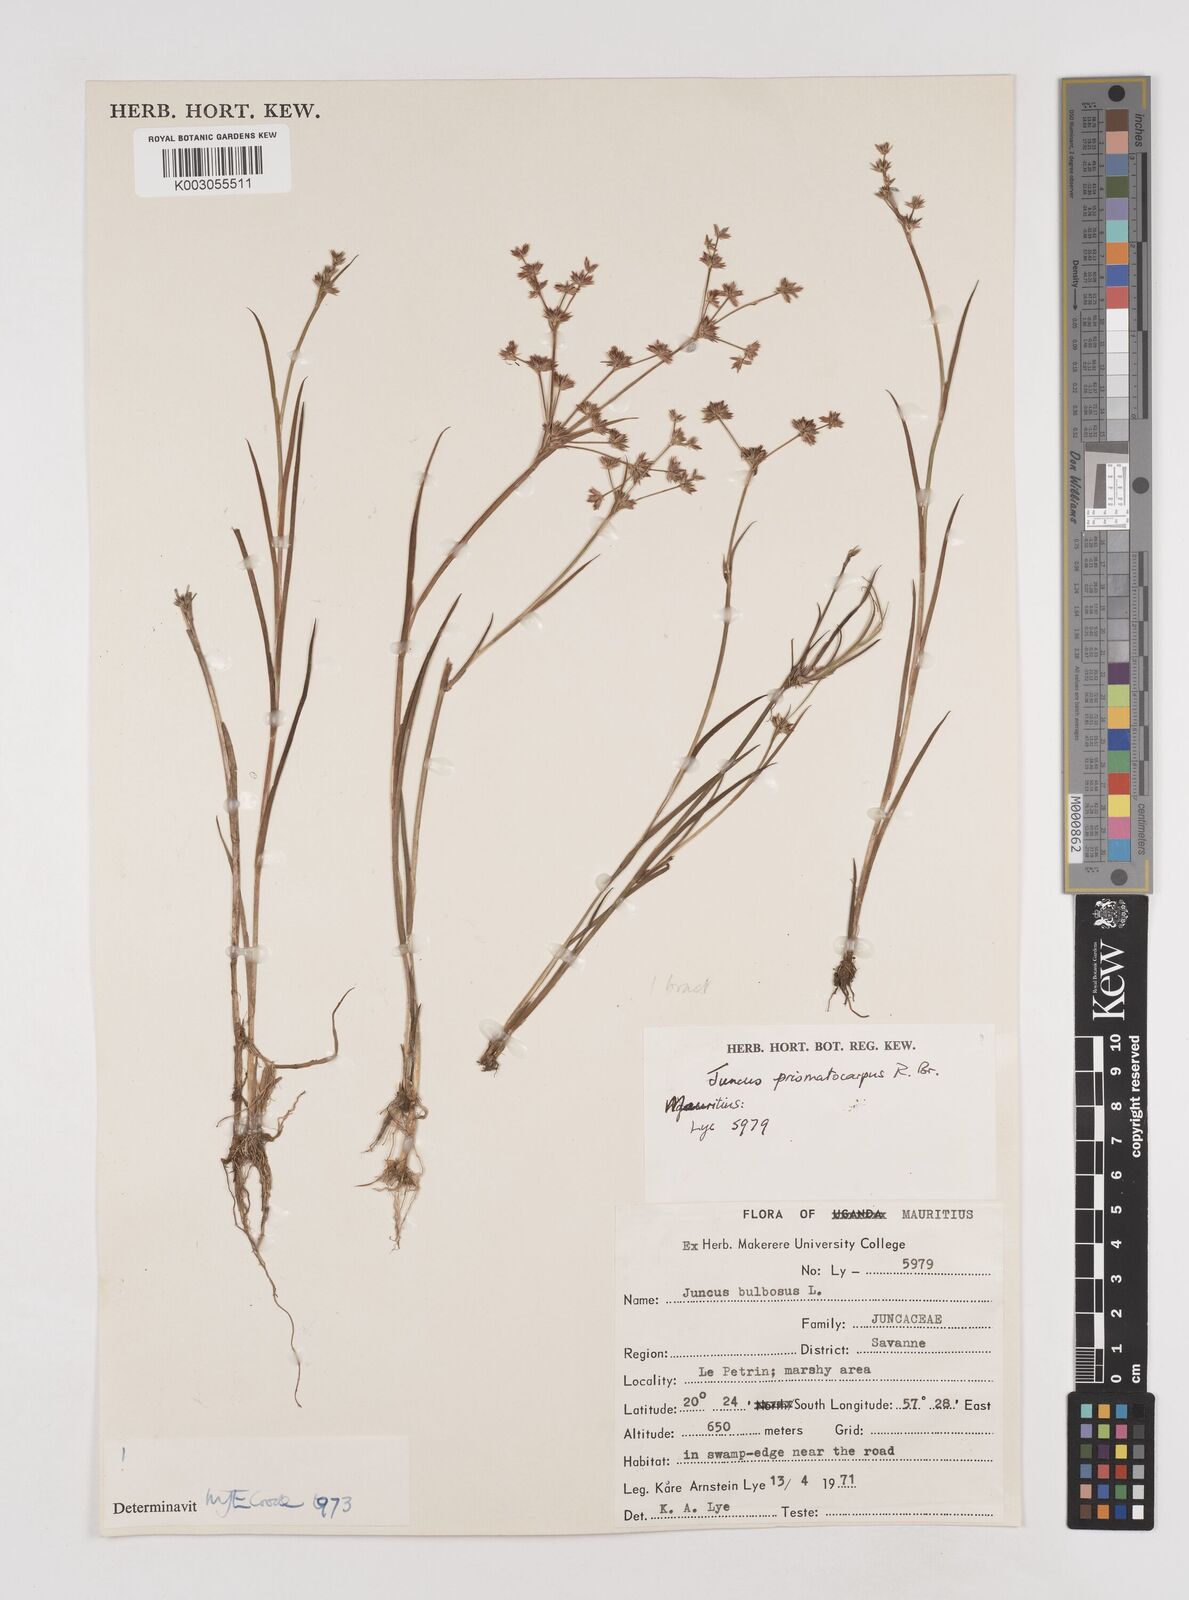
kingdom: Plantae
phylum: Tracheophyta
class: Liliopsida
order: Poales
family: Juncaceae
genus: Juncus
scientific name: Juncus prismatocarpus
